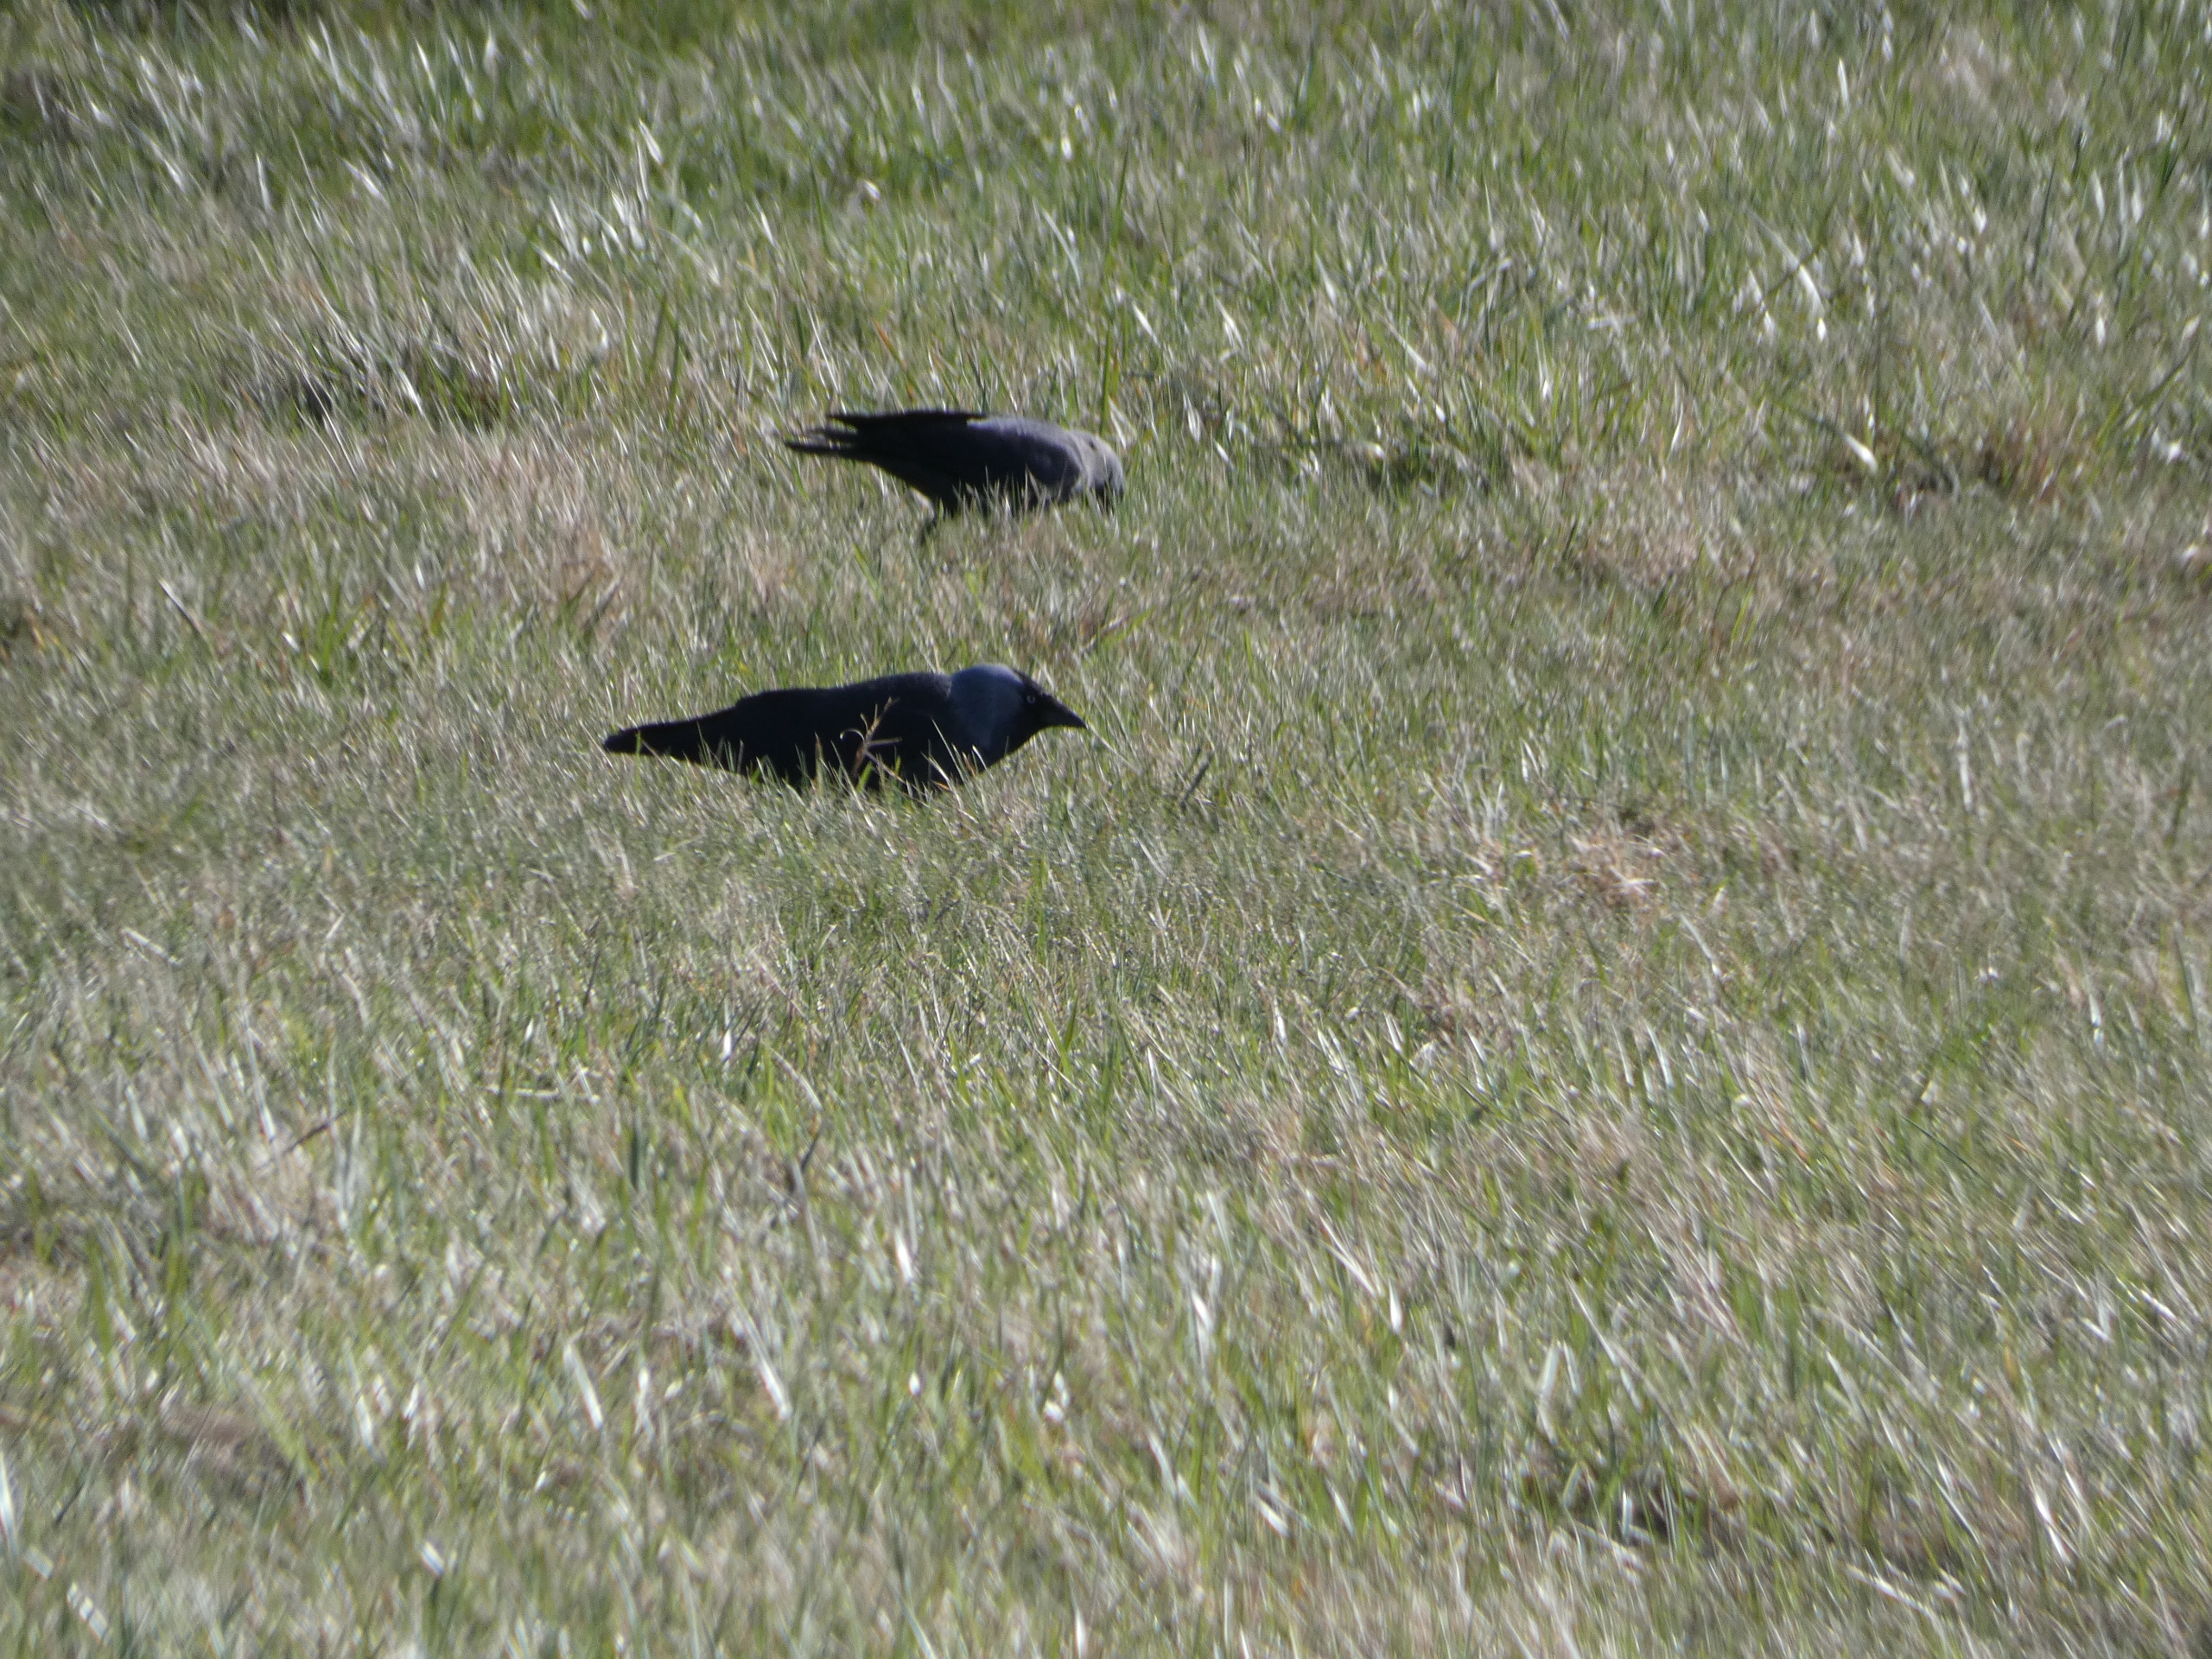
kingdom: Animalia
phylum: Chordata
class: Aves
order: Passeriformes
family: Corvidae
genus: Coloeus
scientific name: Coloeus monedula
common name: Allike
